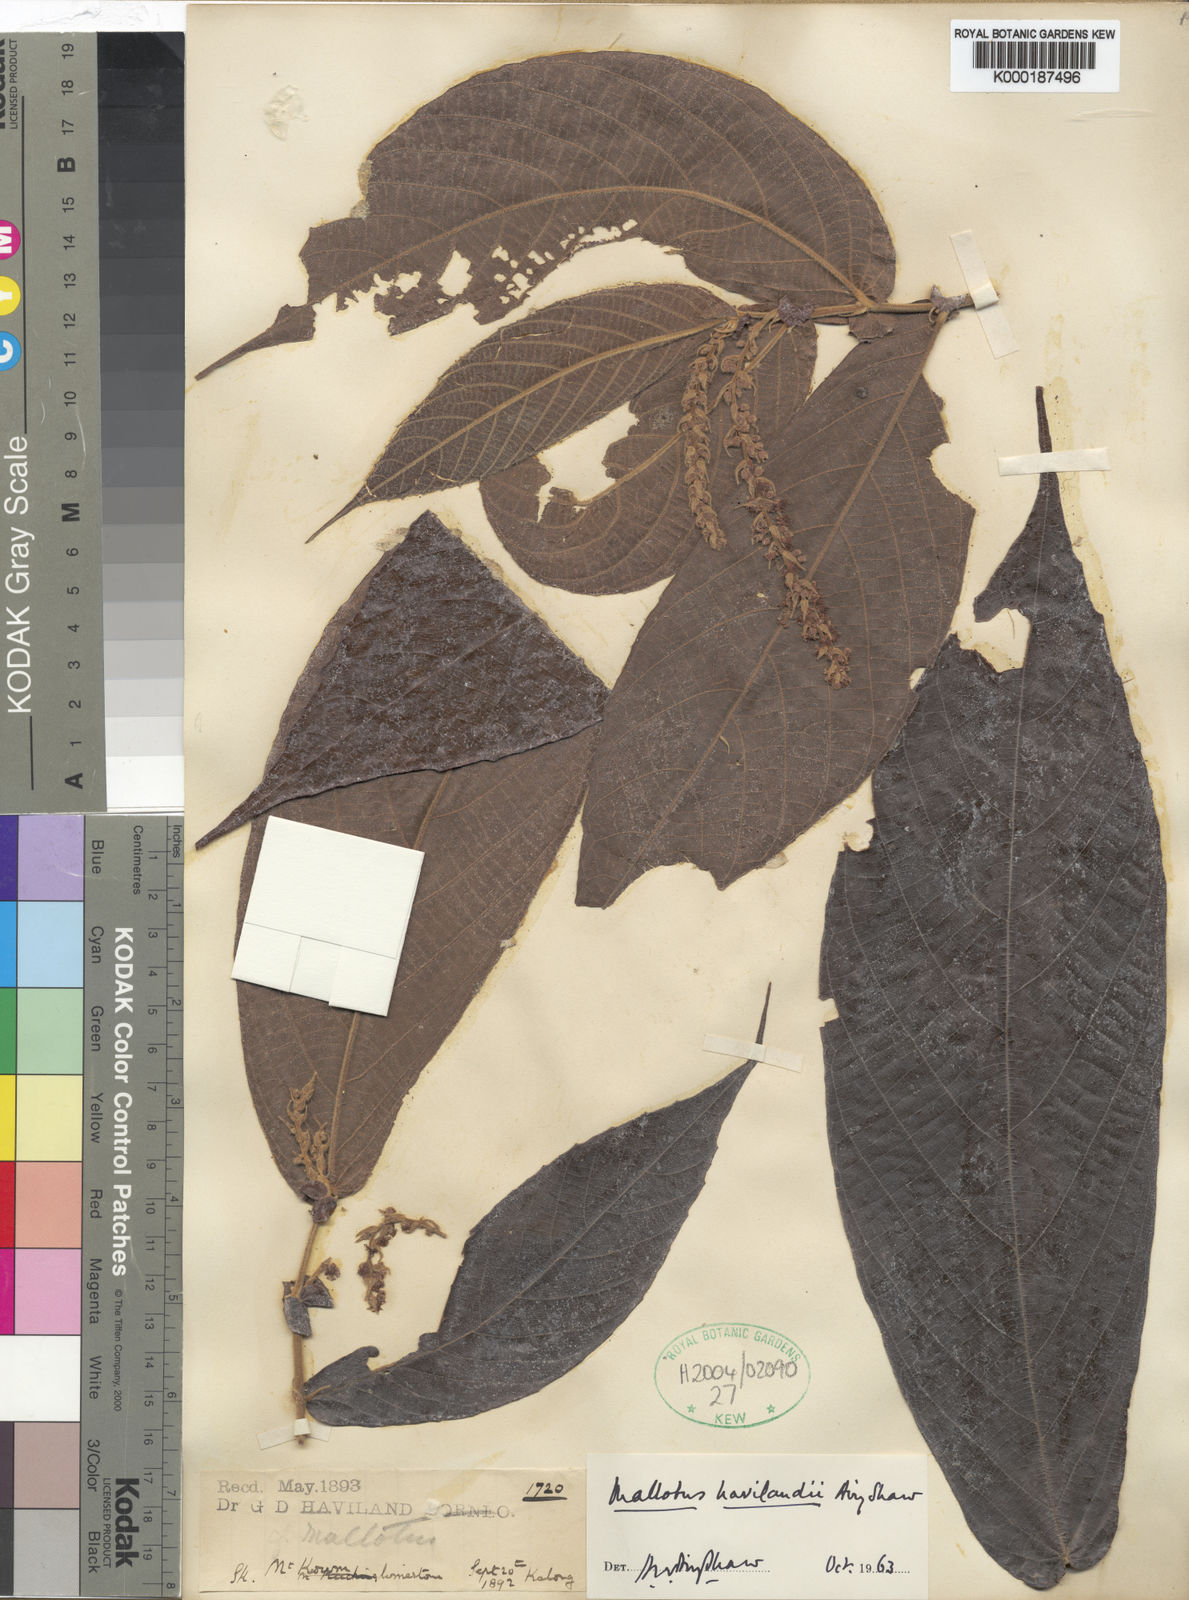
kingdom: Plantae
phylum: Tracheophyta
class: Magnoliopsida
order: Malpighiales
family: Euphorbiaceae
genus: Mallotus
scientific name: Mallotus havilandii
